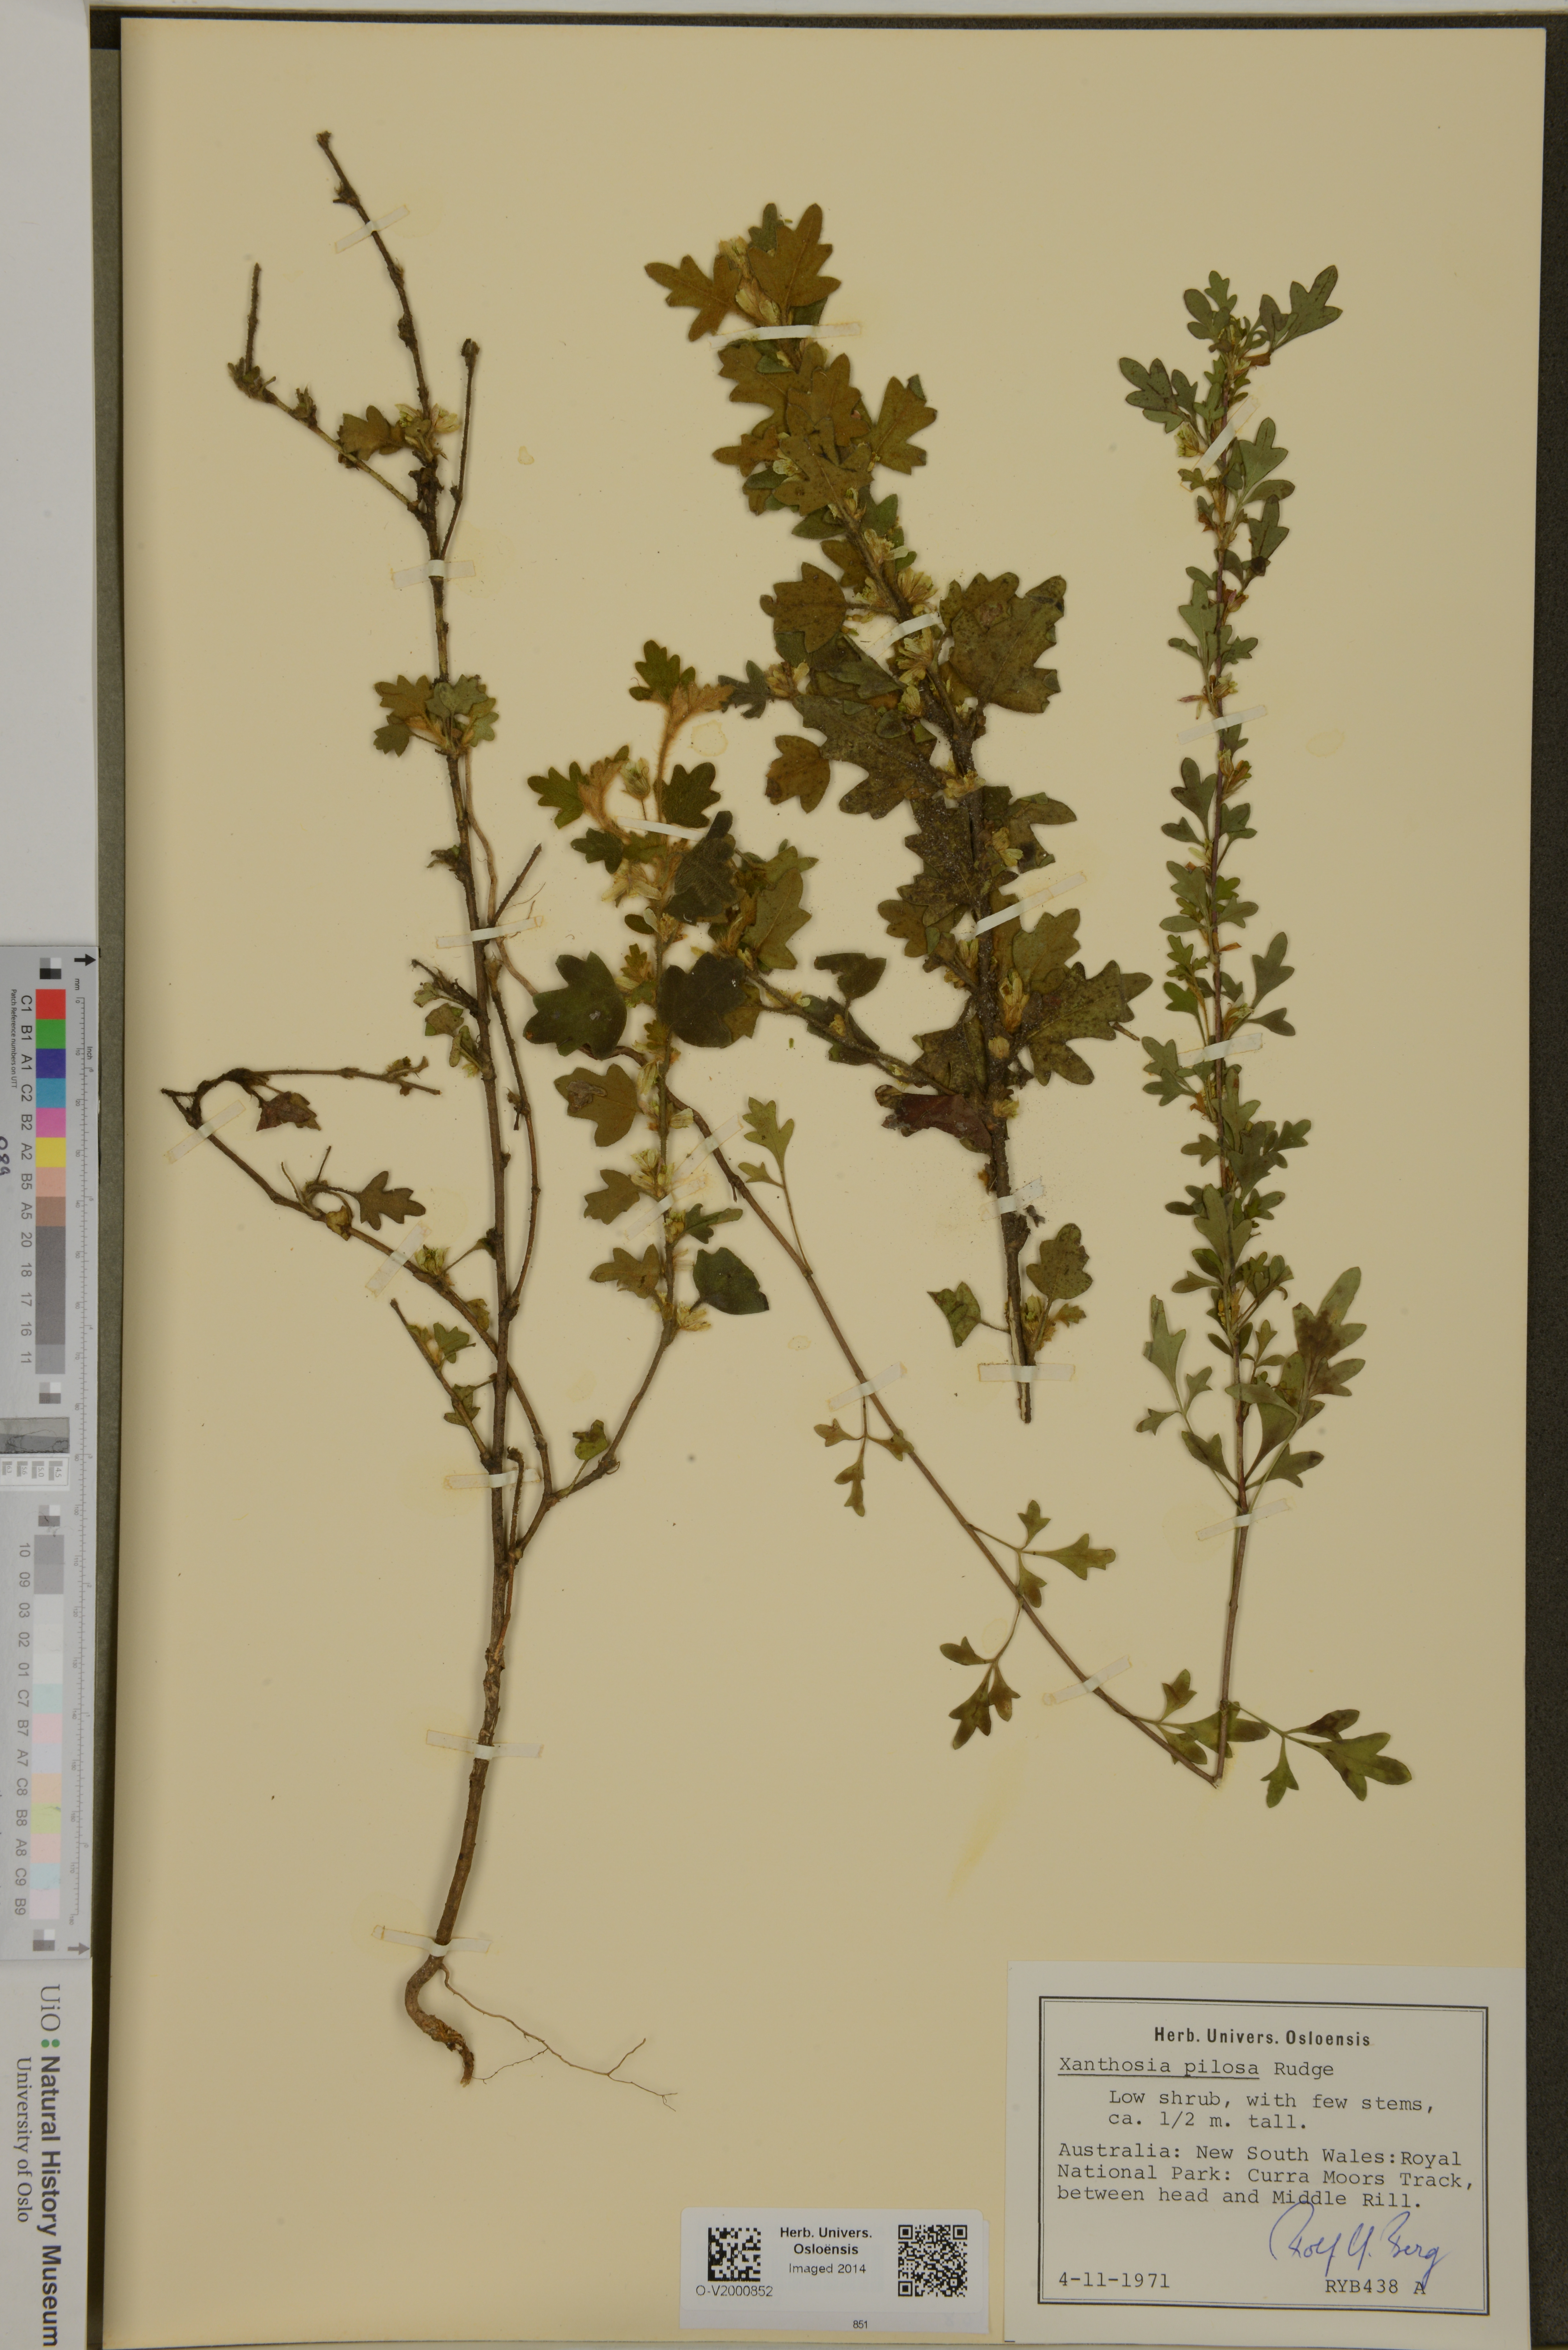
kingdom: Plantae
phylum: Tracheophyta
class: Magnoliopsida
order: Apiales
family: Apiaceae
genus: Xanthosia
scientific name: Xanthosia pilosa
